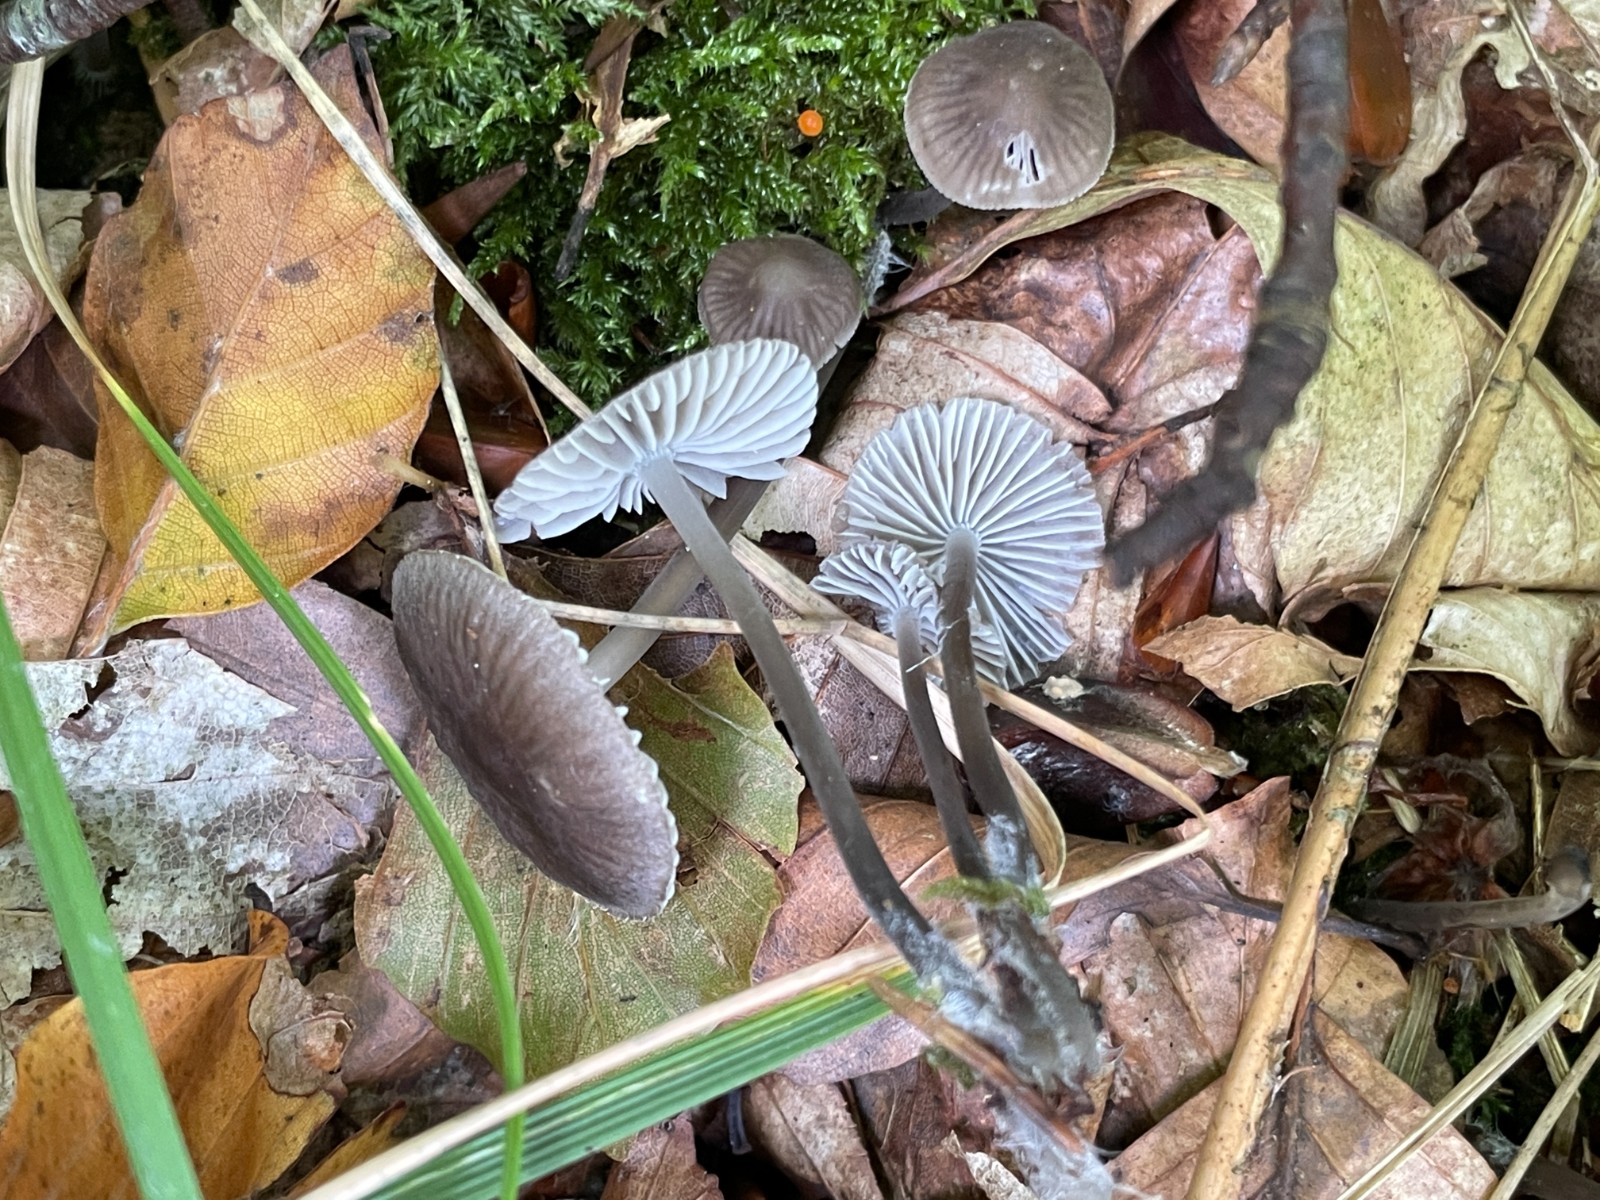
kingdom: Fungi
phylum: Basidiomycota
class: Agaricomycetes
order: Agaricales
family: Mycenaceae
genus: Mycena
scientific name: Mycena leptocephala
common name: klor-huesvamp
